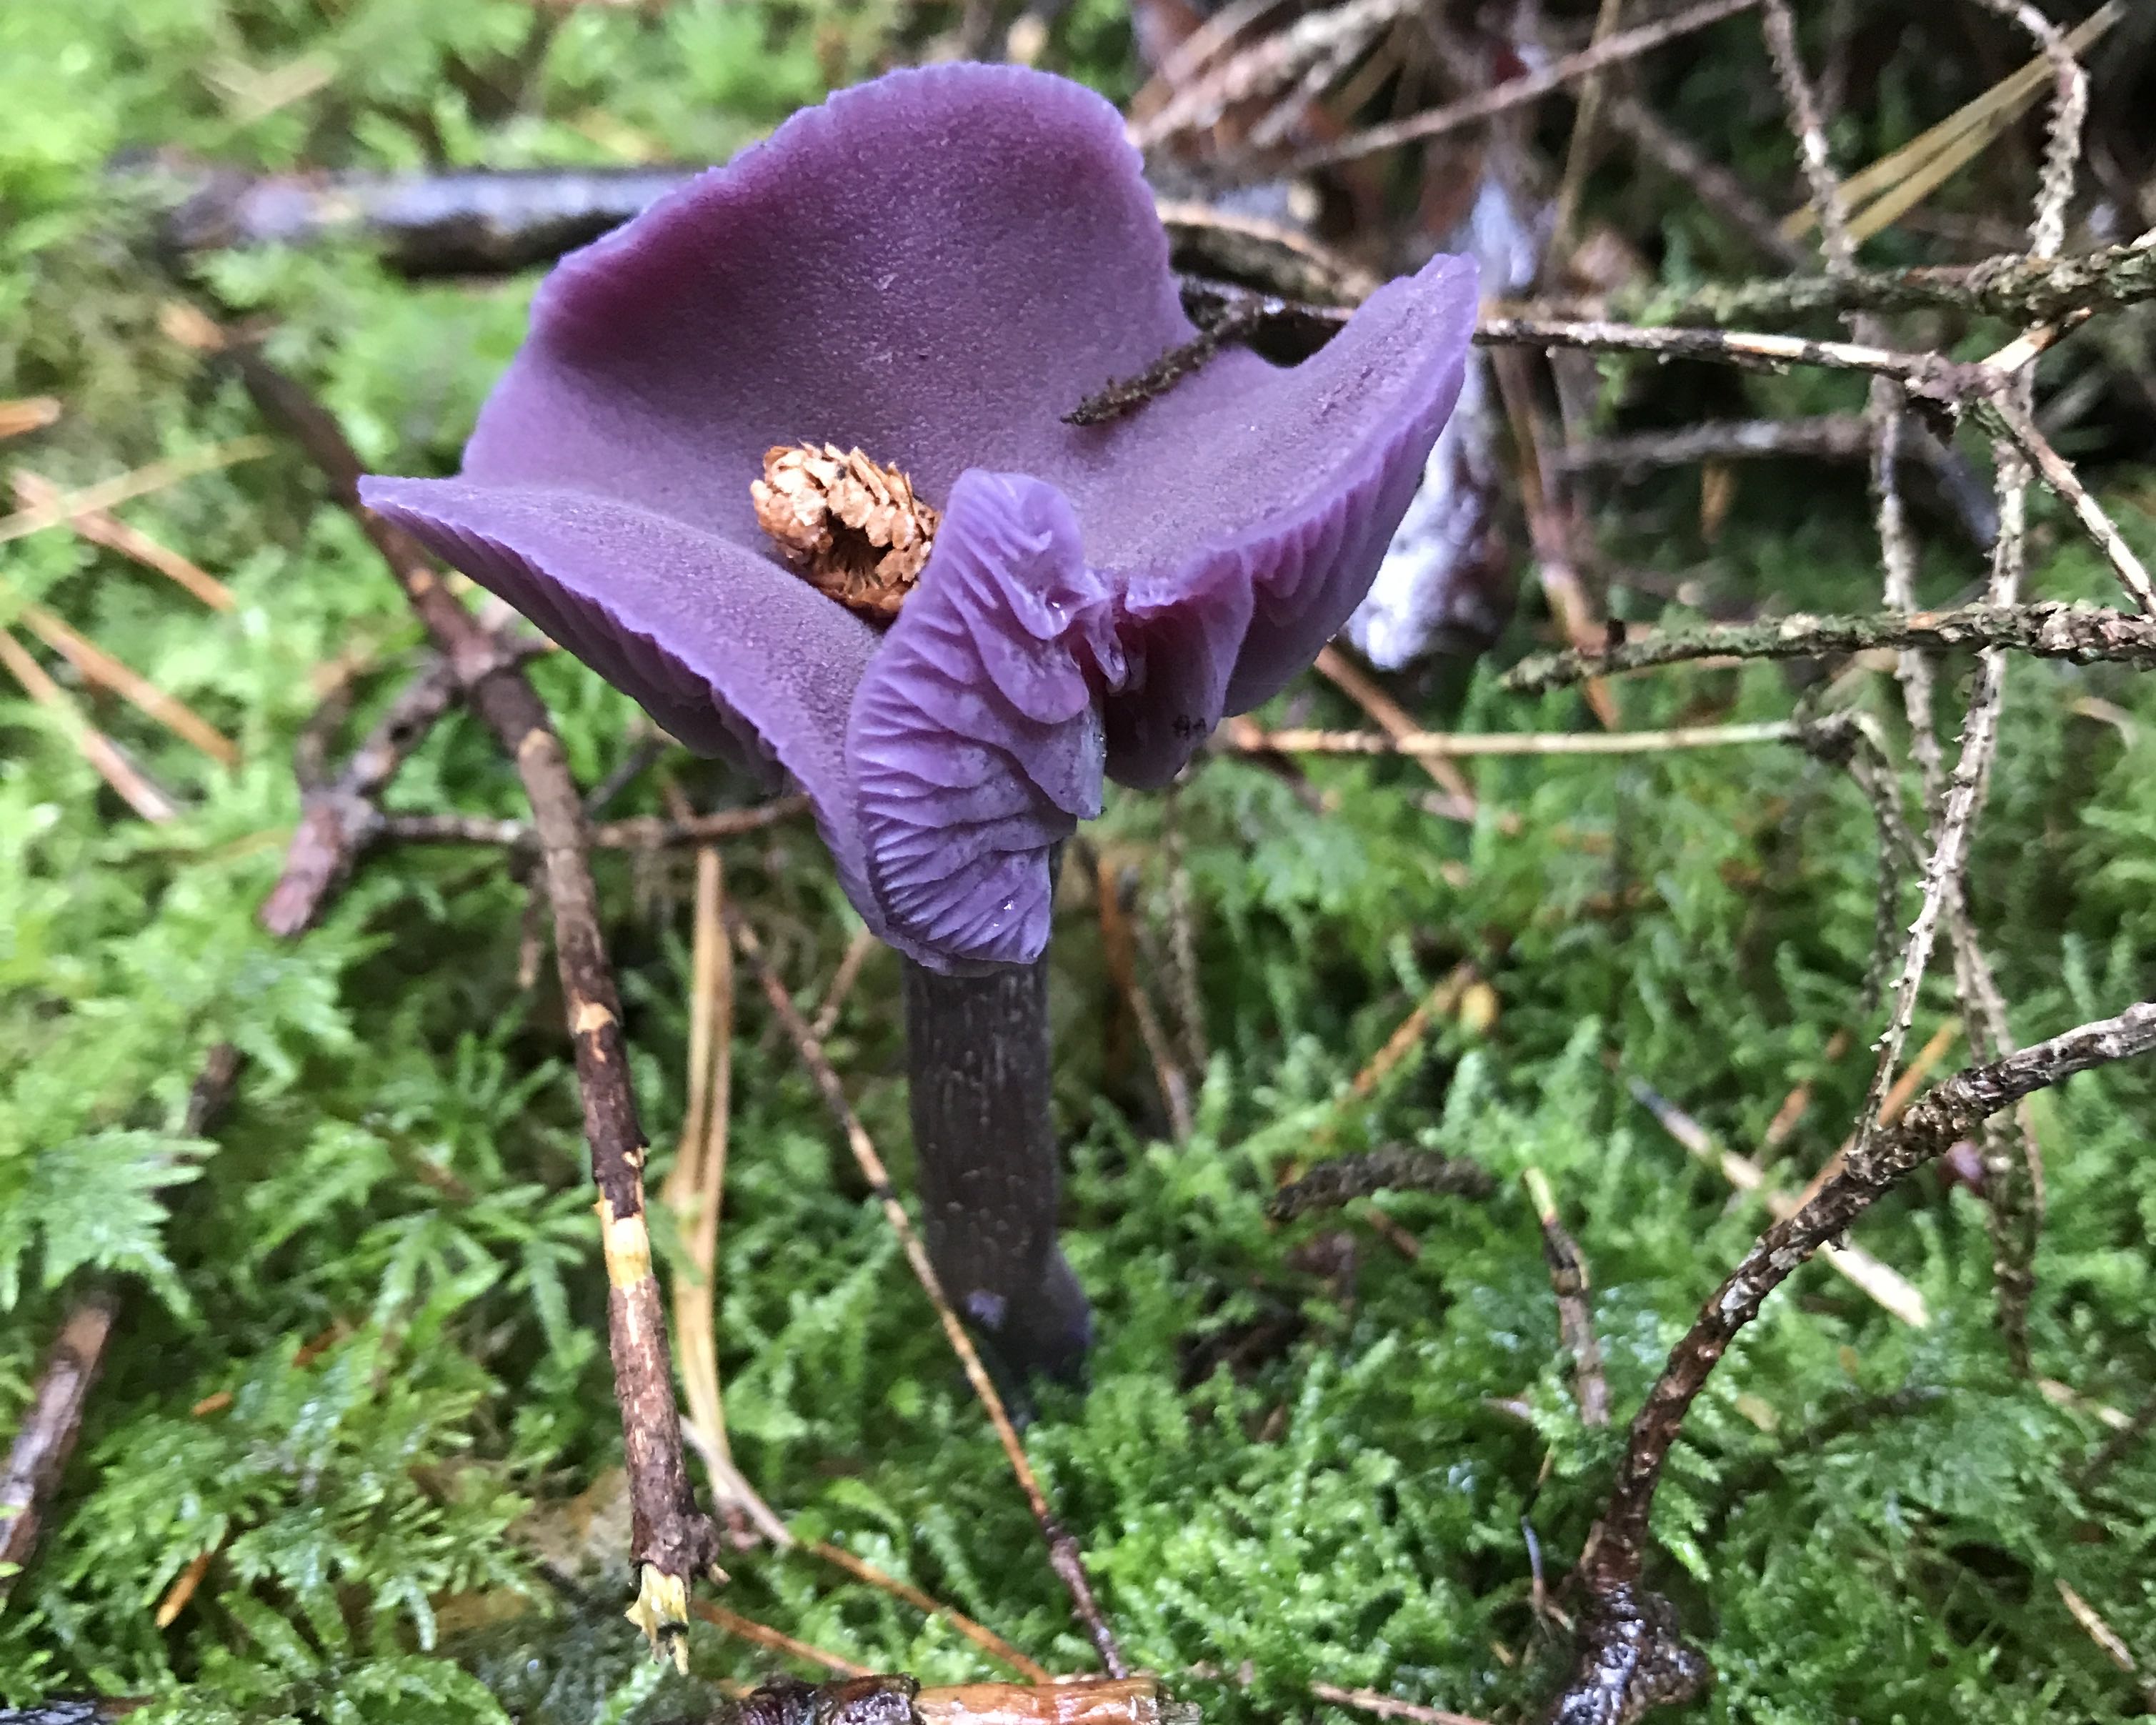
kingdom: Fungi
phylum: Basidiomycota
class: Agaricomycetes
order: Agaricales
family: Hydnangiaceae
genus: Laccaria
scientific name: Laccaria amethystina
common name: violet ametysthat
